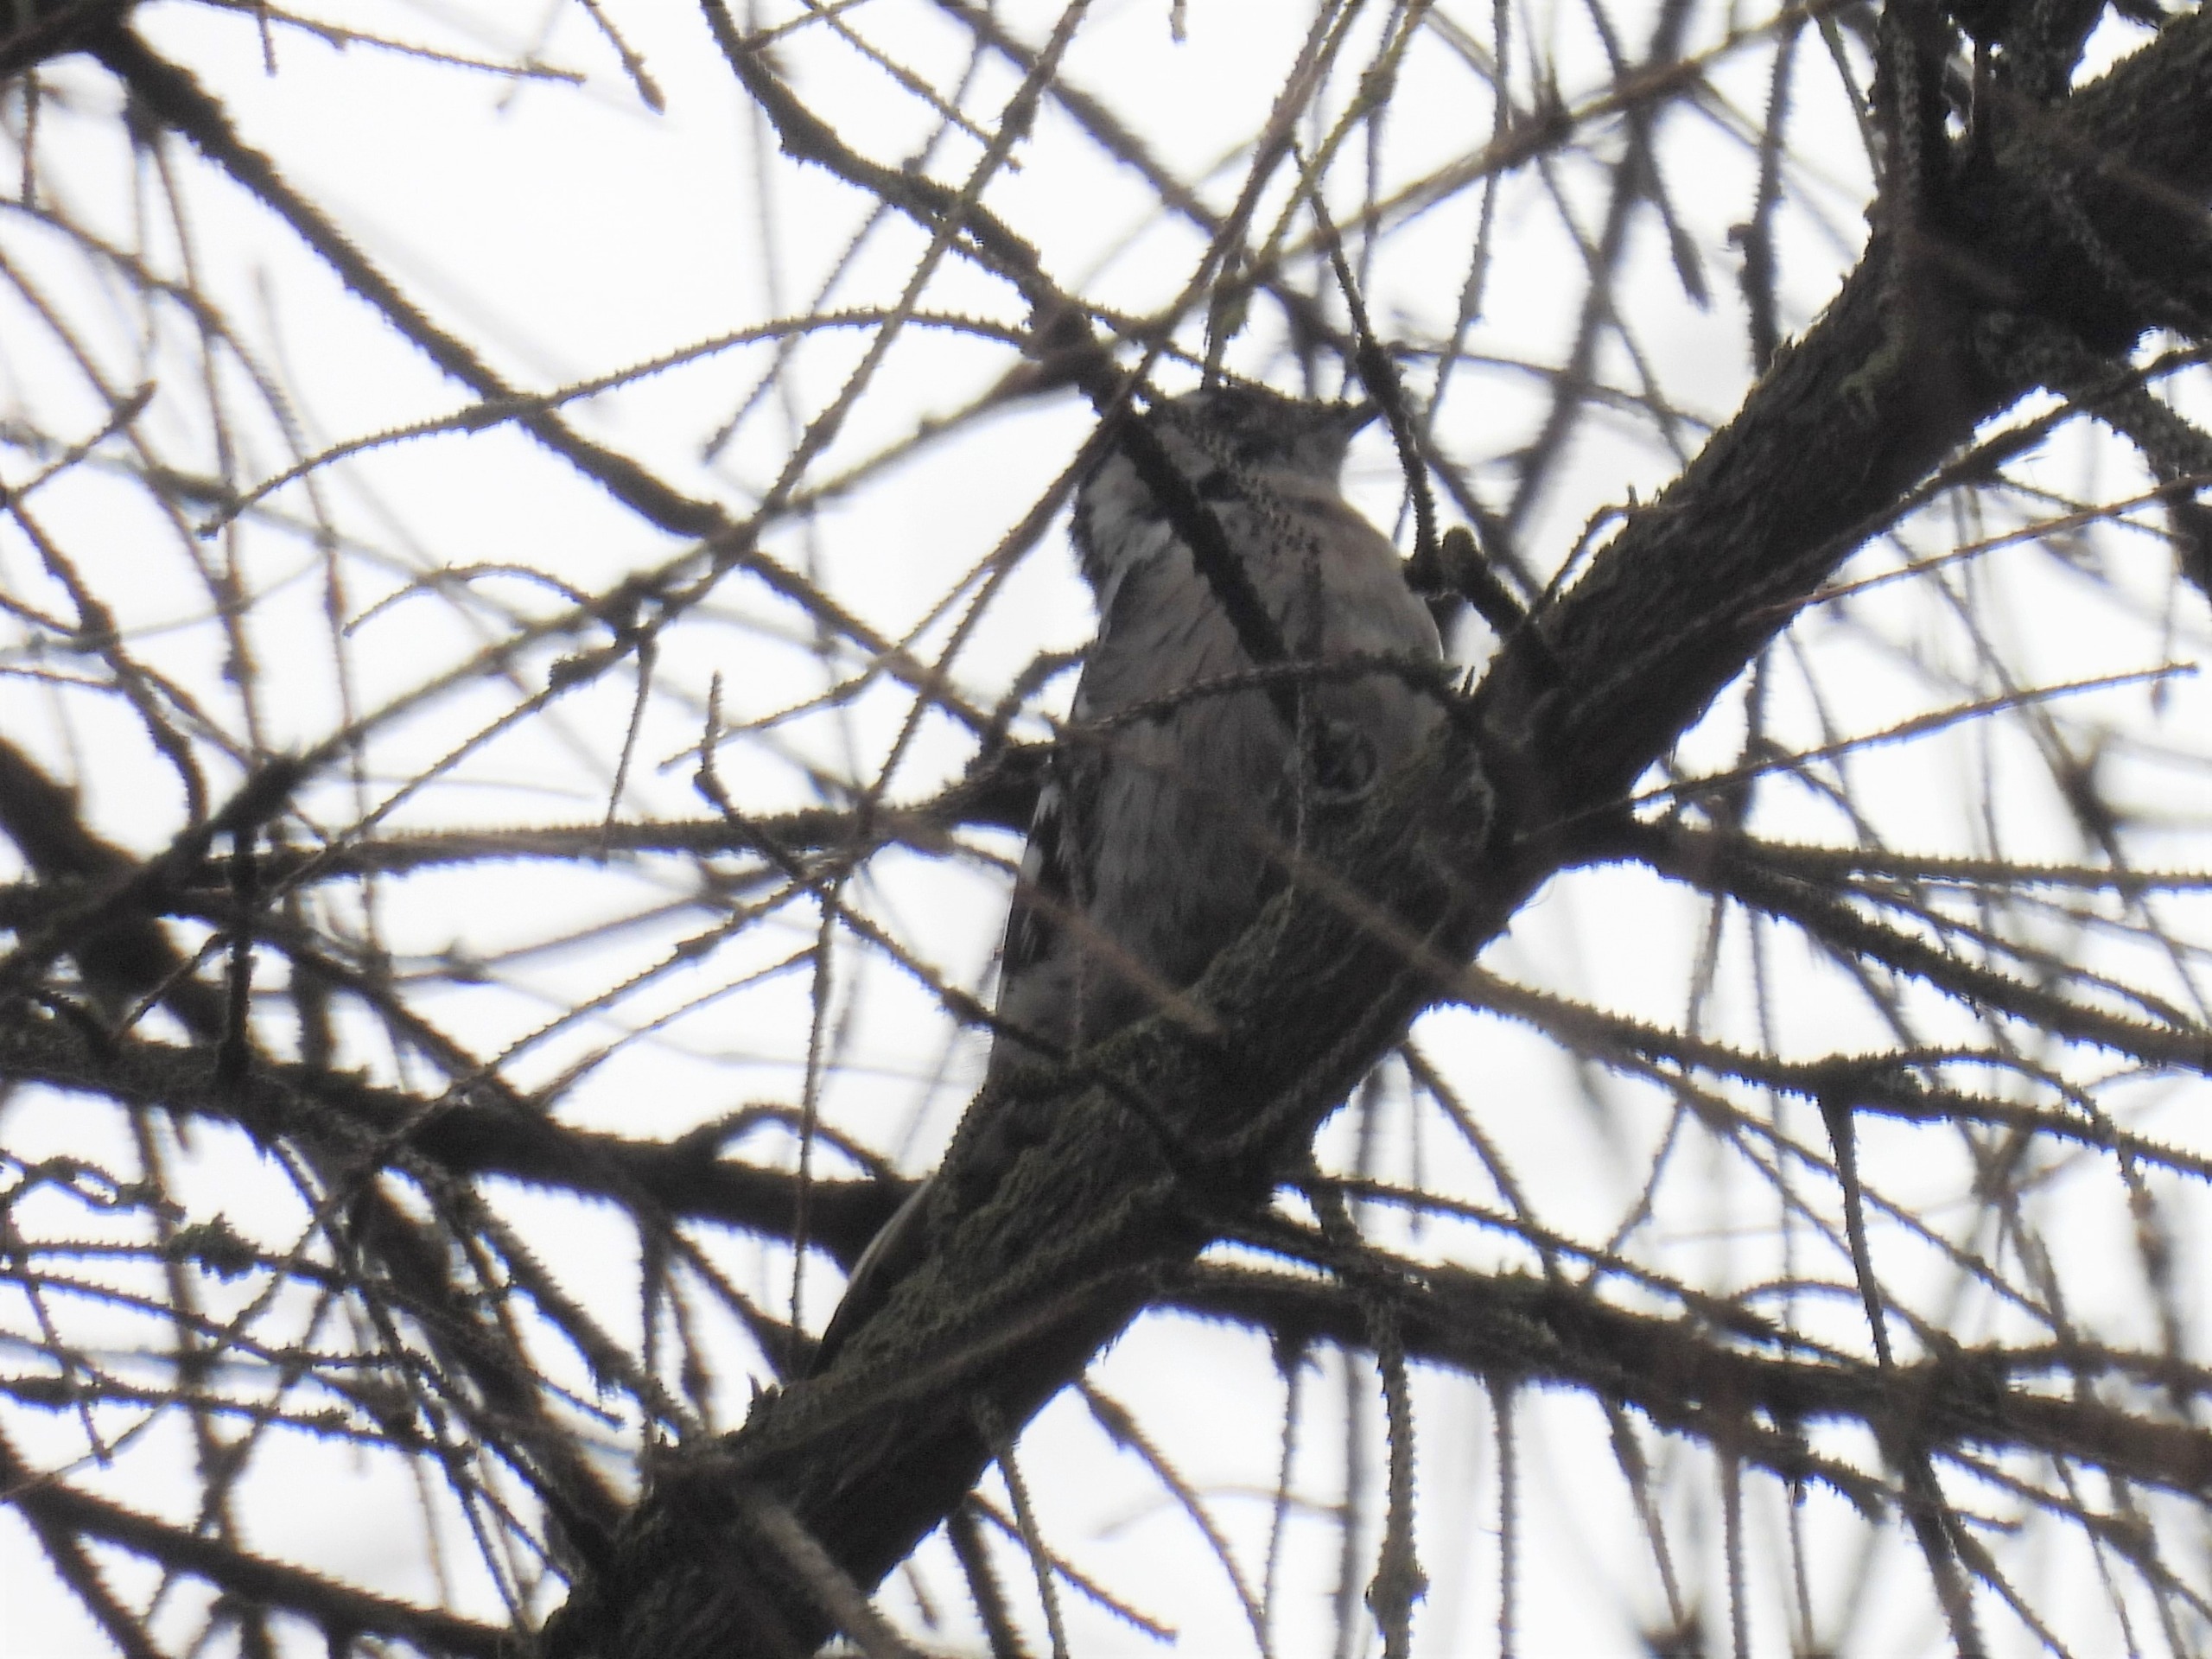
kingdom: Animalia
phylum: Chordata
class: Aves
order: Piciformes
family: Picidae
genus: Dryobates
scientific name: Dryobates minor
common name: Lille flagspætte
